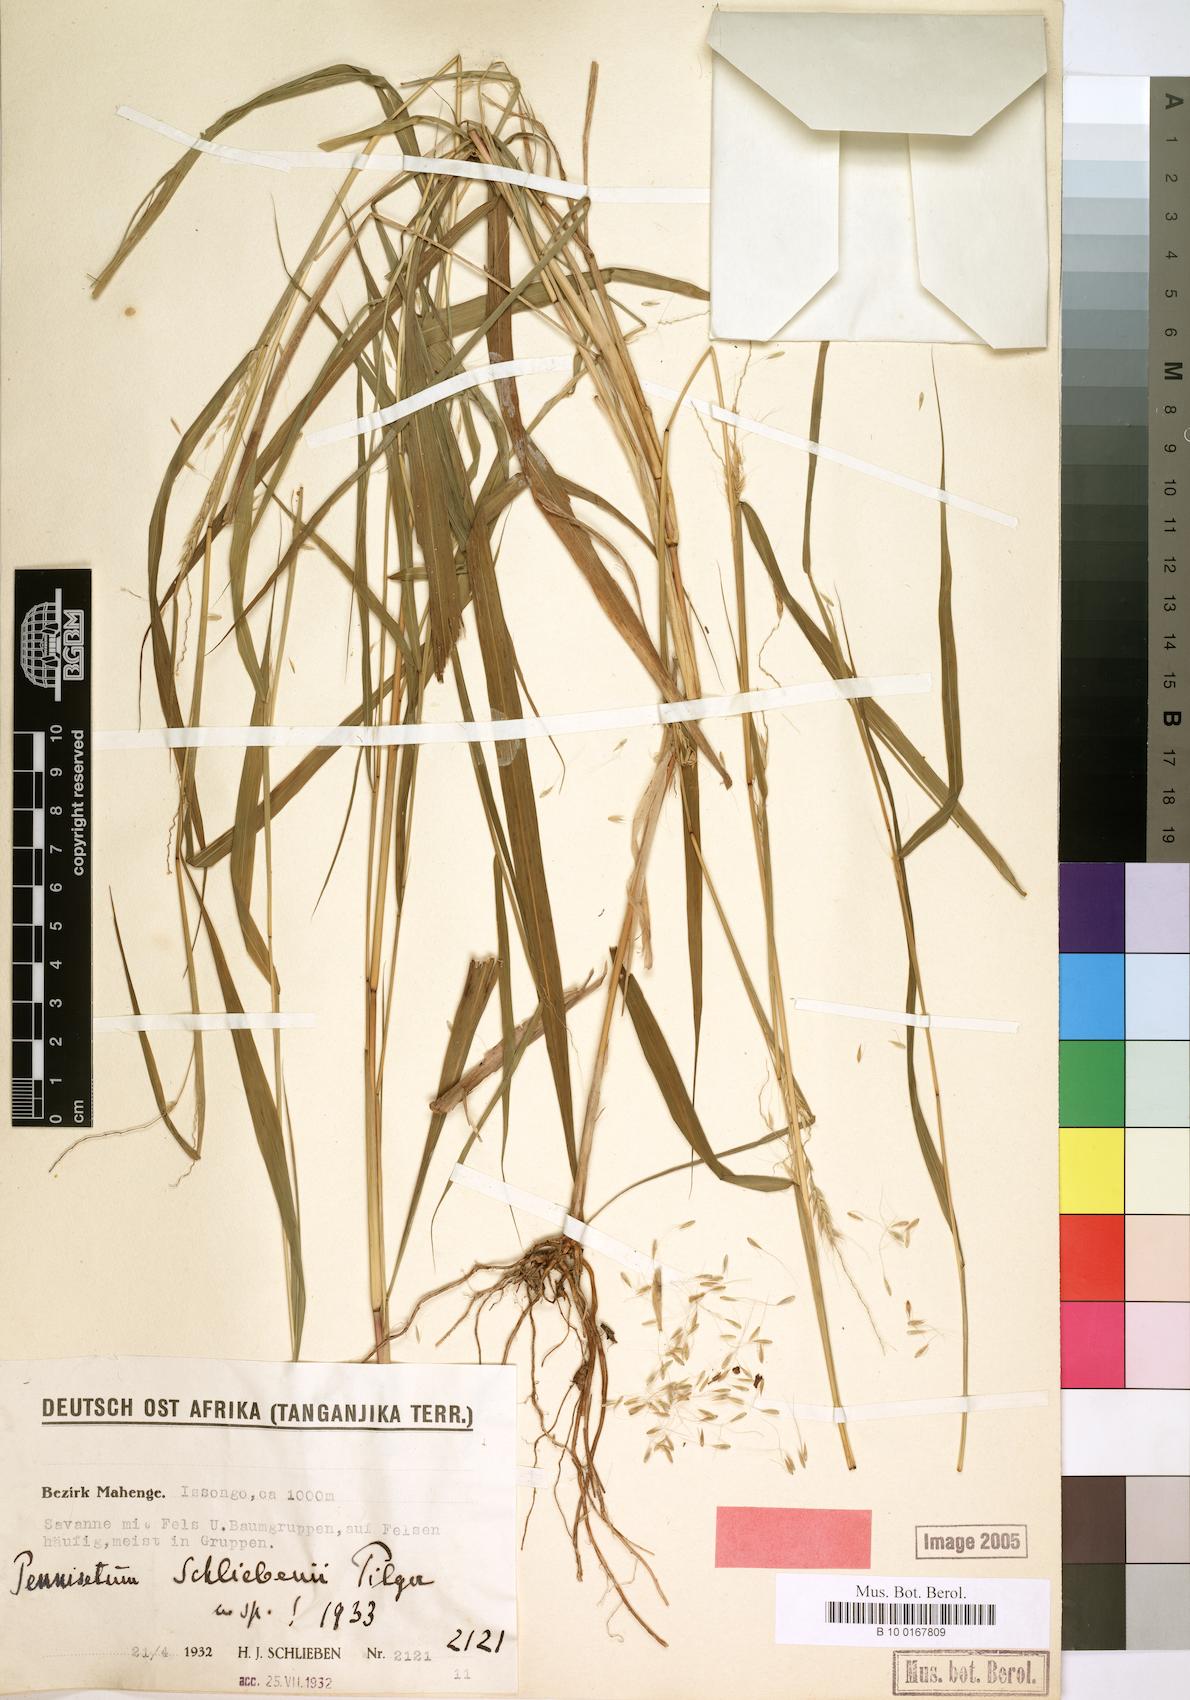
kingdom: Plantae
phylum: Tracheophyta
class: Liliopsida
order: Poales
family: Poaceae
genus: Cenchrus
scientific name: Cenchrus trisetus
